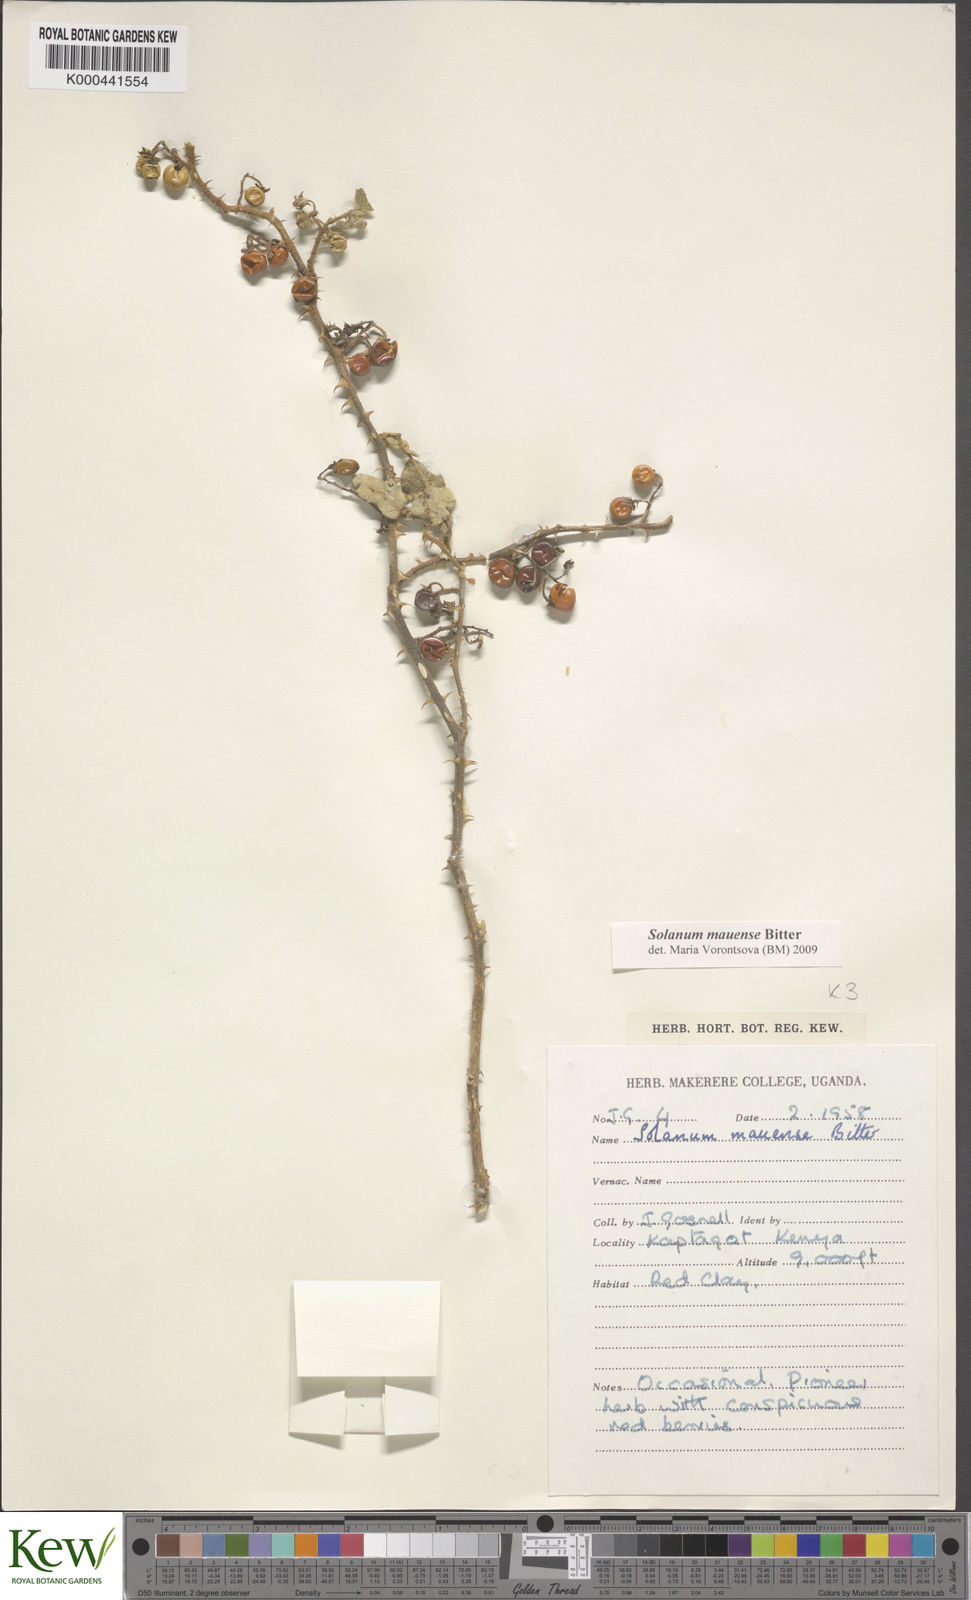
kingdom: Plantae
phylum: Tracheophyta
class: Magnoliopsida
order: Solanales
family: Solanaceae
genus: Solanum
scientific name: Solanum mauense
